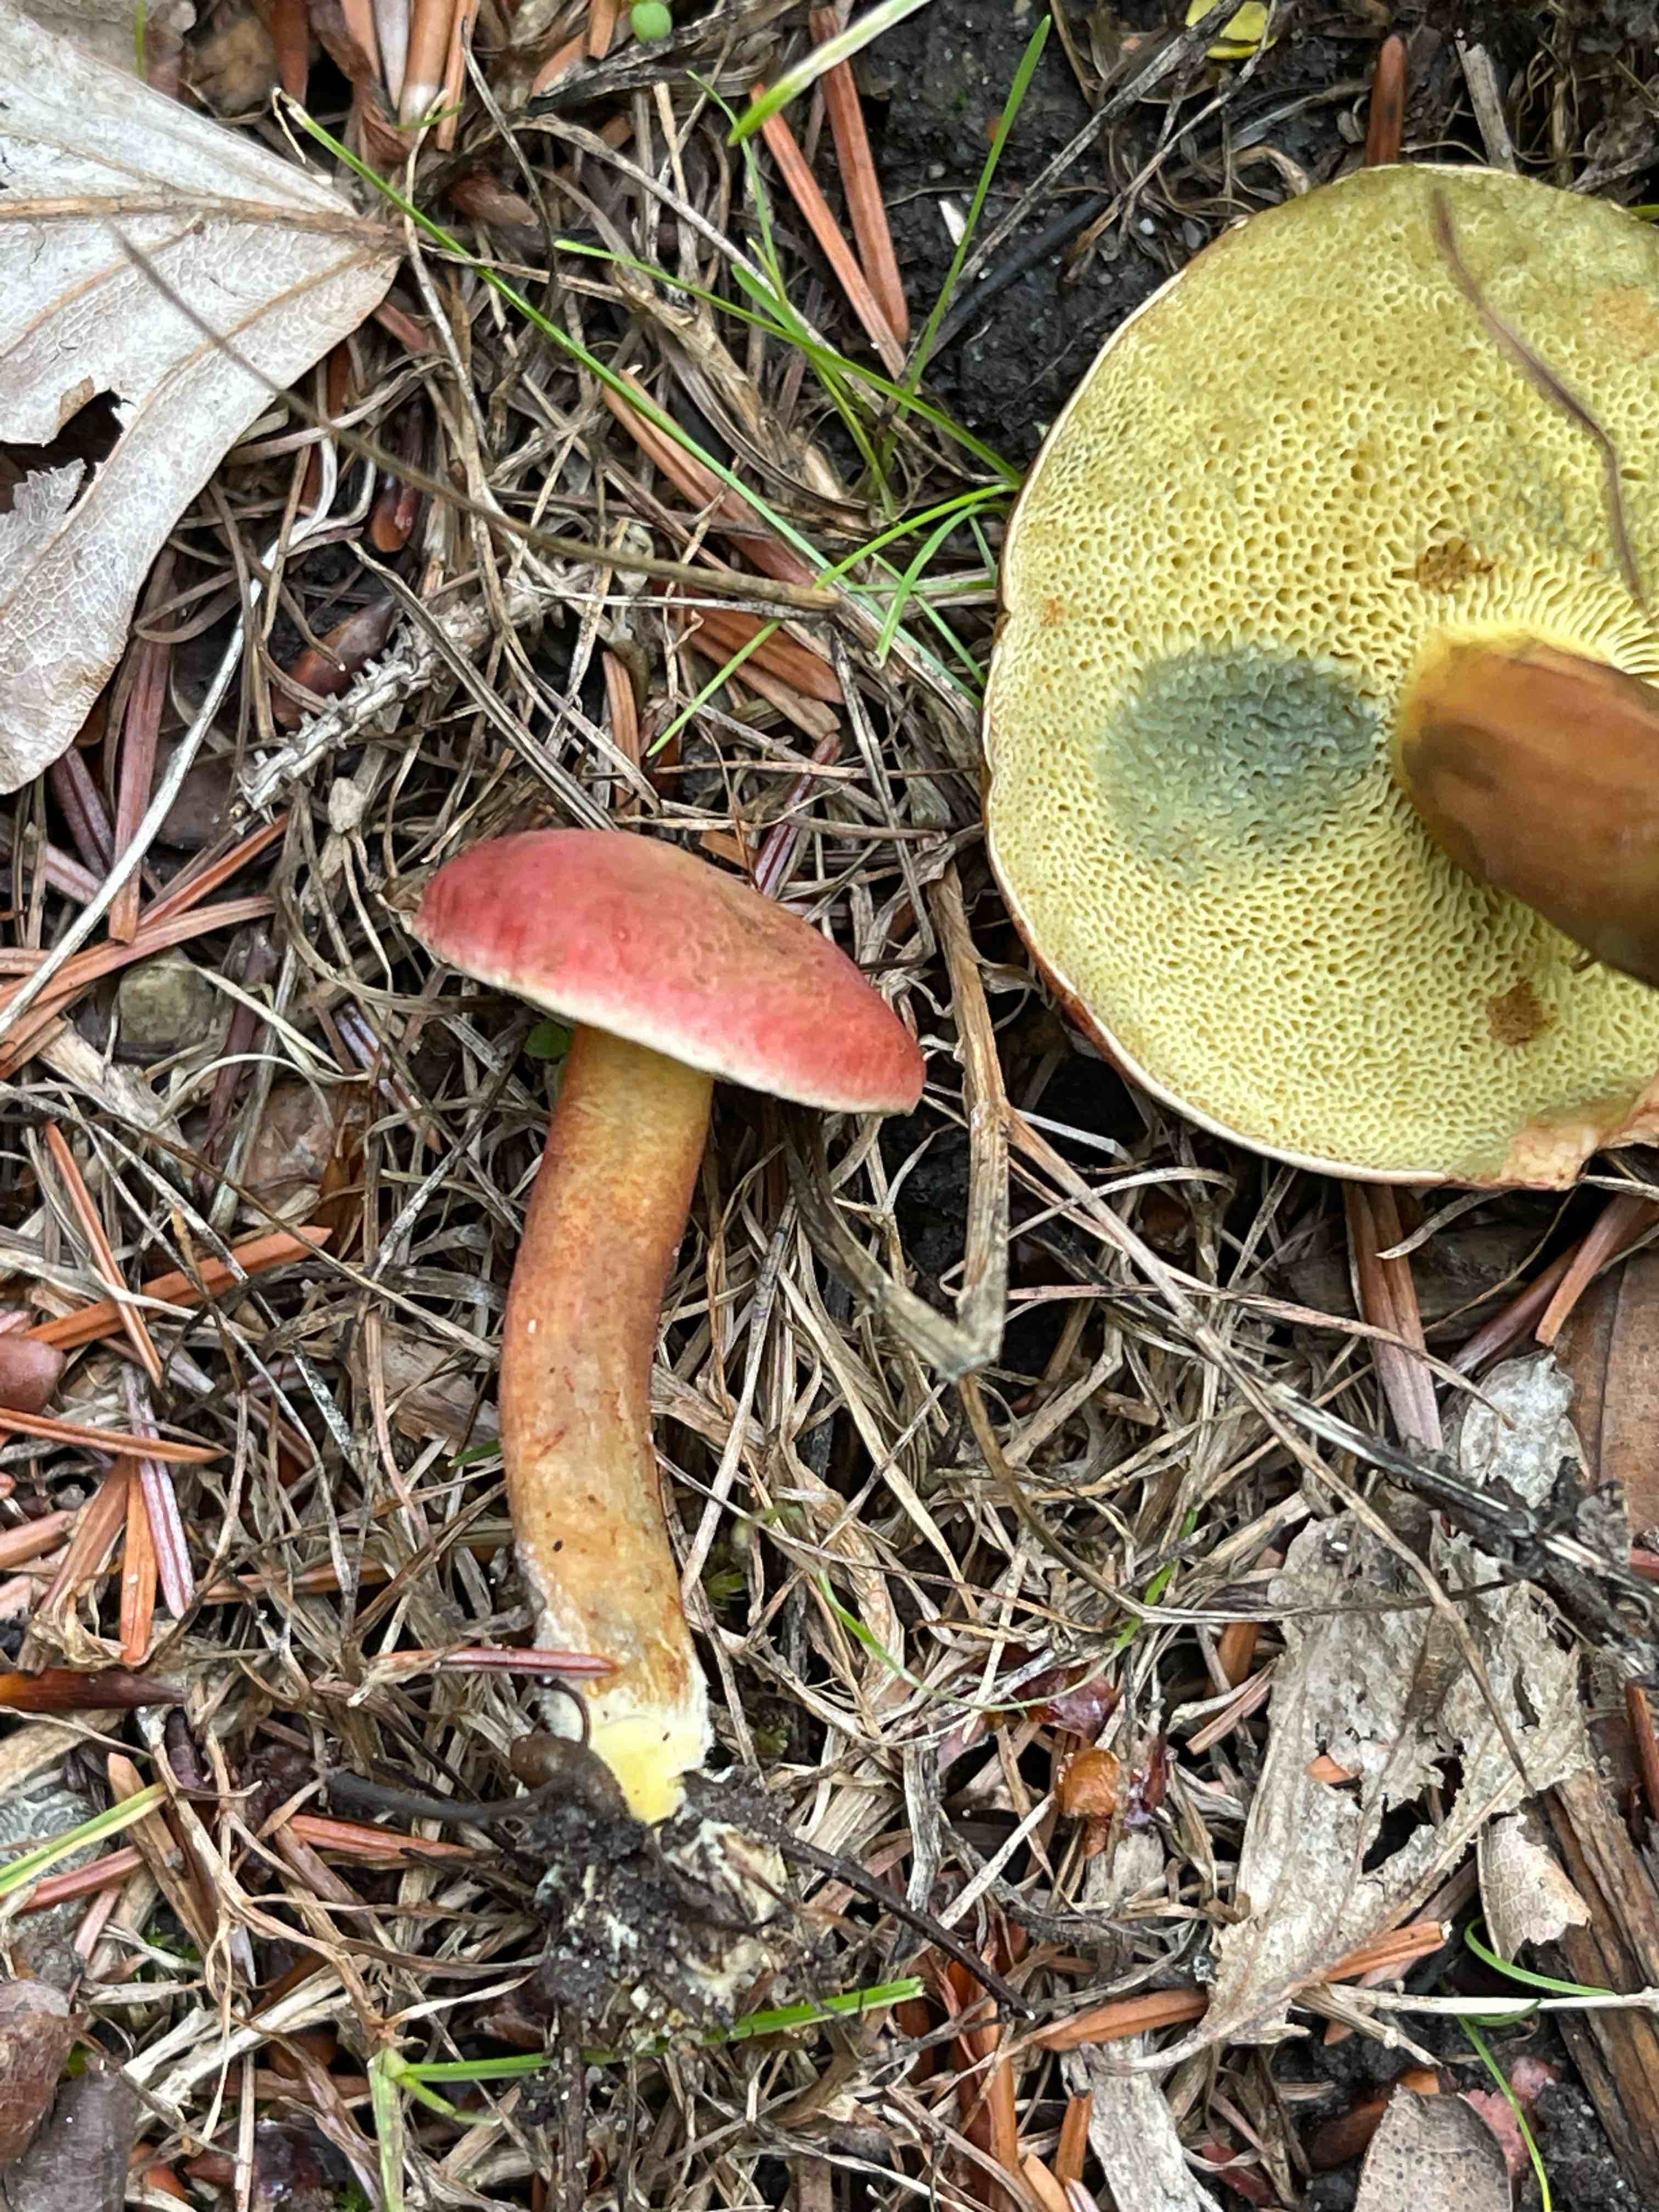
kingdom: Fungi
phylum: Basidiomycota
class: Agaricomycetes
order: Boletales
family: Boletaceae
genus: Hortiboletus
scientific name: Hortiboletus rubellus
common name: blodrød rørhat
